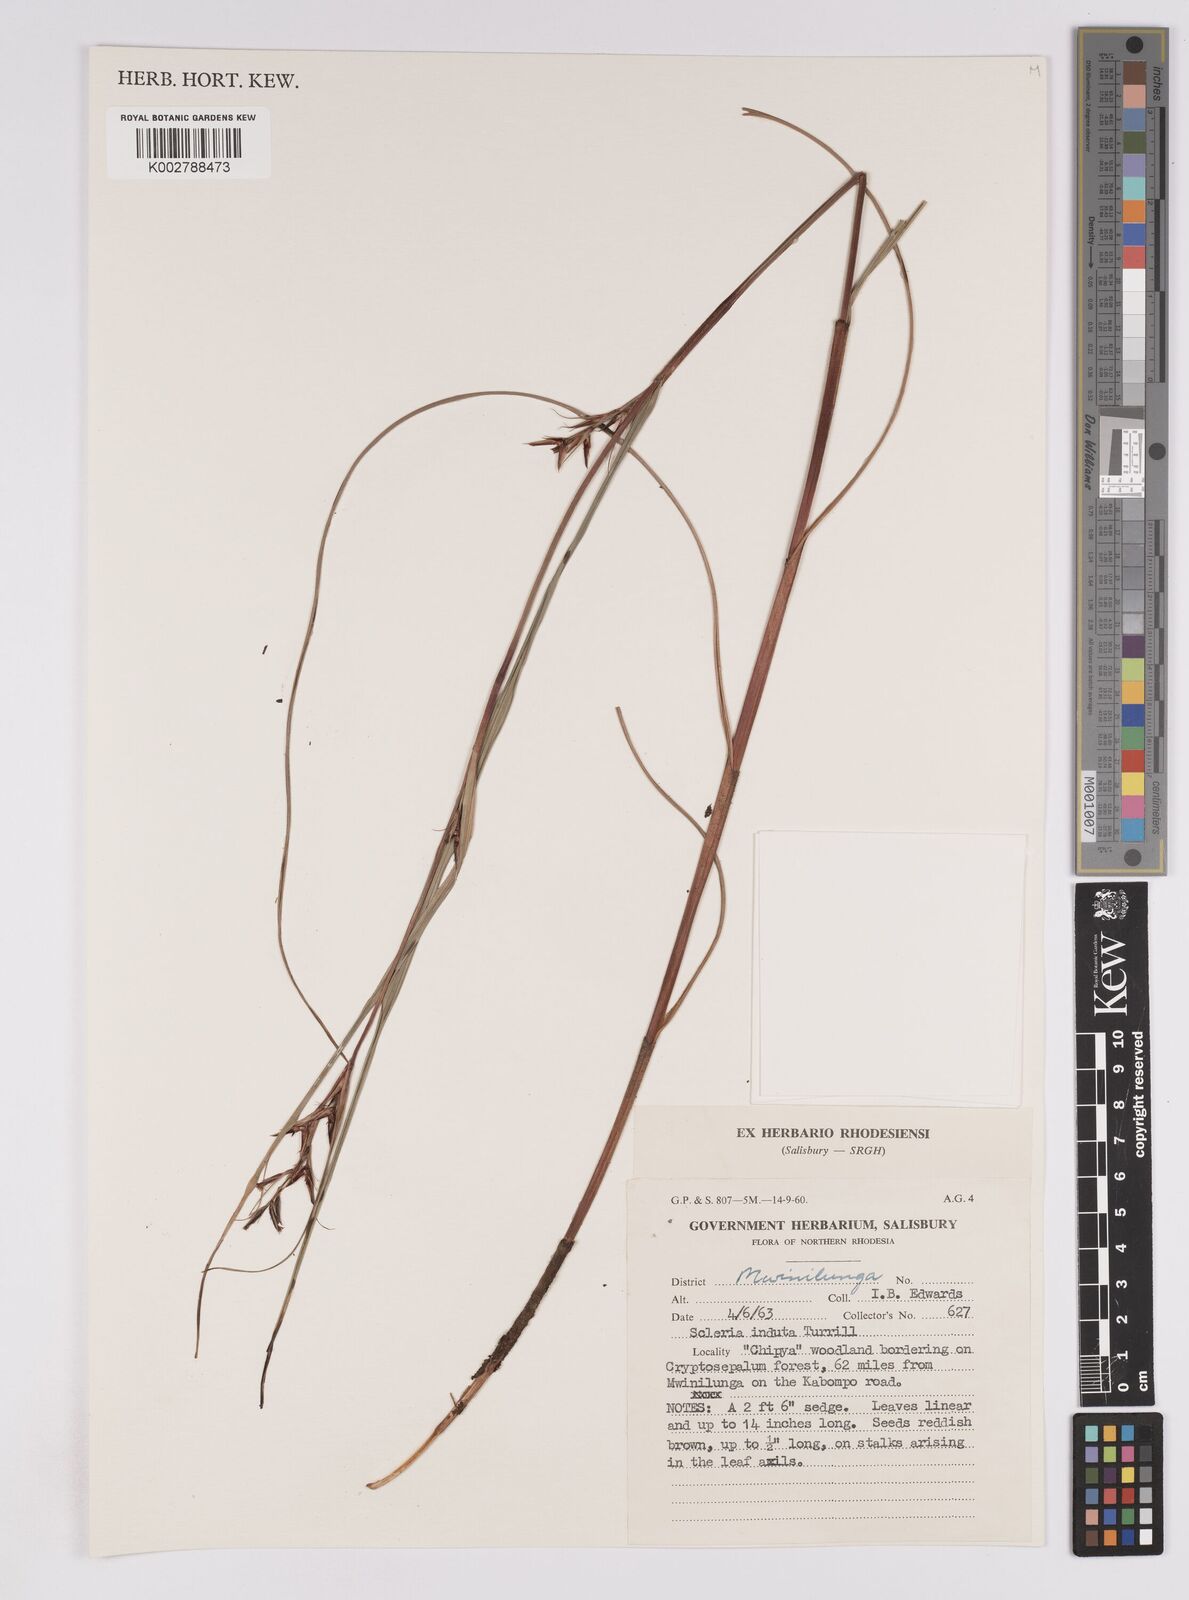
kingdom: Plantae
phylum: Tracheophyta
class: Liliopsida
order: Poales
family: Cyperaceae
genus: Scleria
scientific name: Scleria induta
